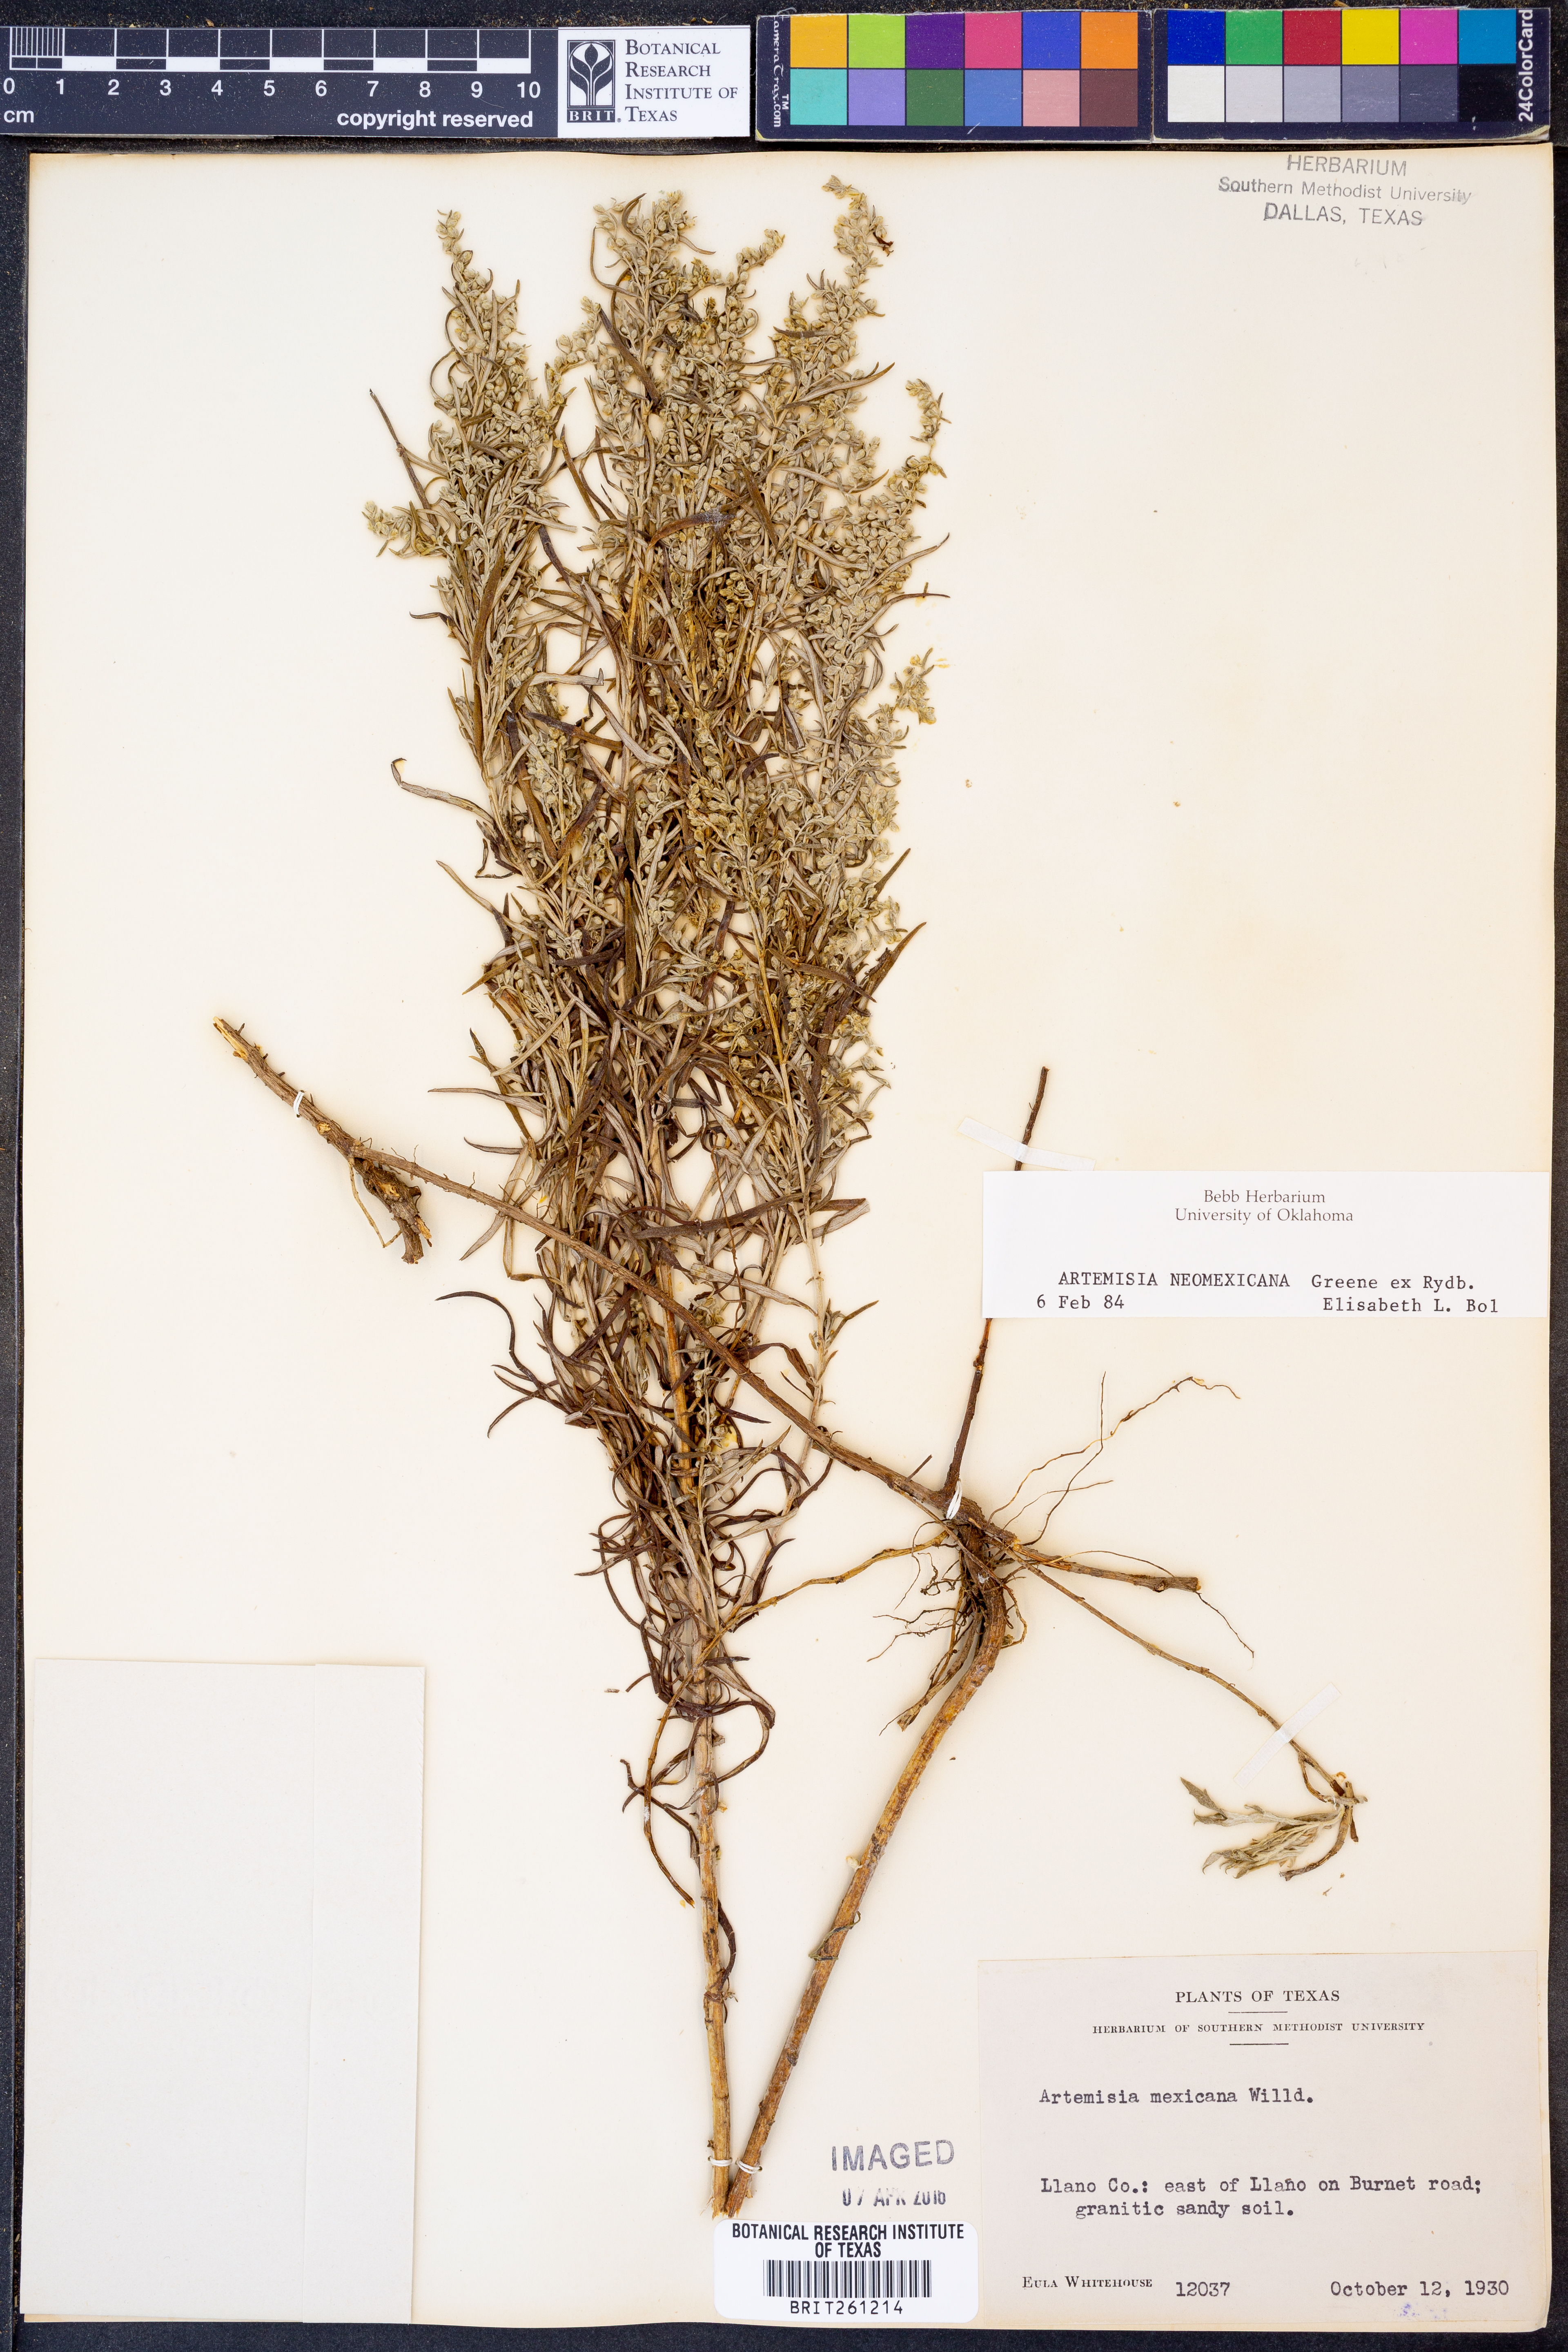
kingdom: Plantae
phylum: Tracheophyta
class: Magnoliopsida
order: Asterales
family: Asteraceae
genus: Artemisia
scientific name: Artemisia ludoviciana
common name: Western mugwort
